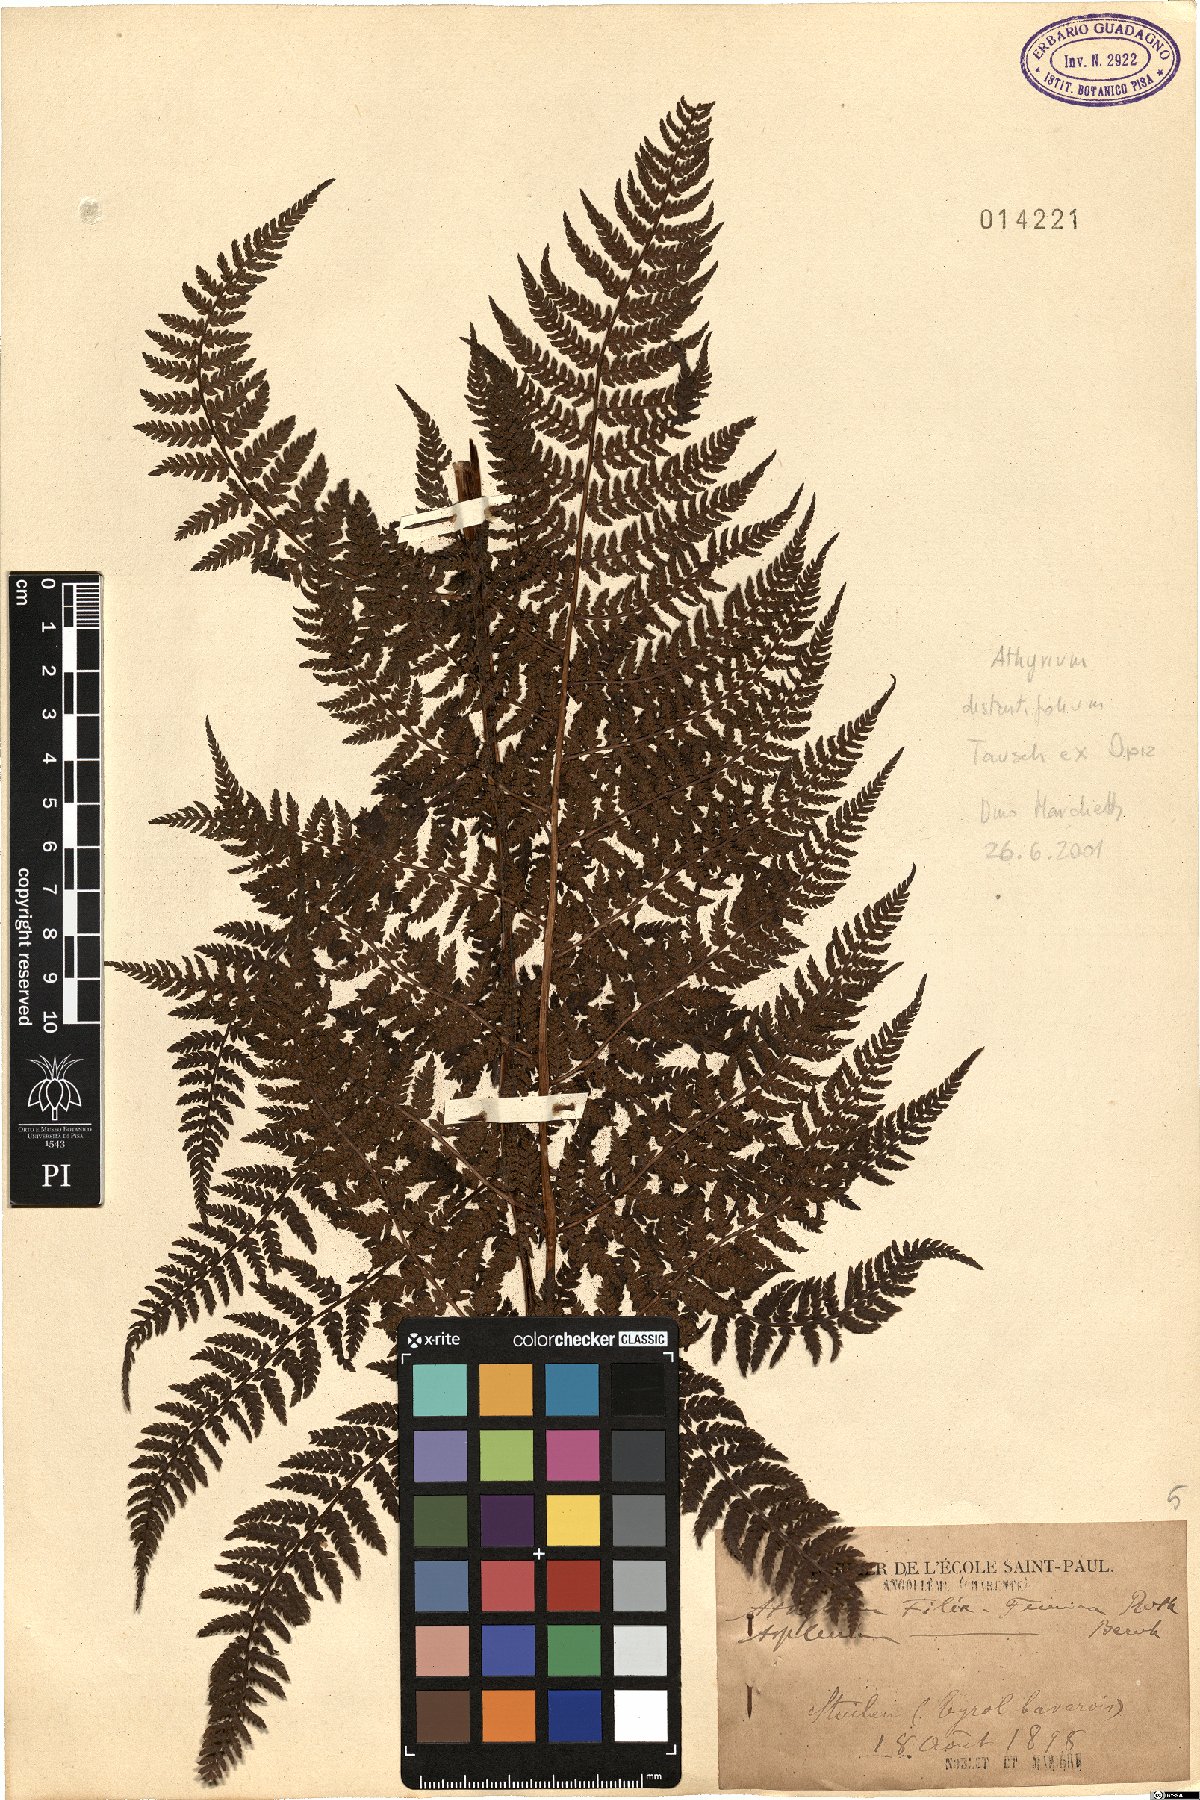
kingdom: Plantae
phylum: Tracheophyta
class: Polypodiopsida
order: Polypodiales
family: Athyriaceae
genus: Pseudathyrium
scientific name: Pseudathyrium alpestre
